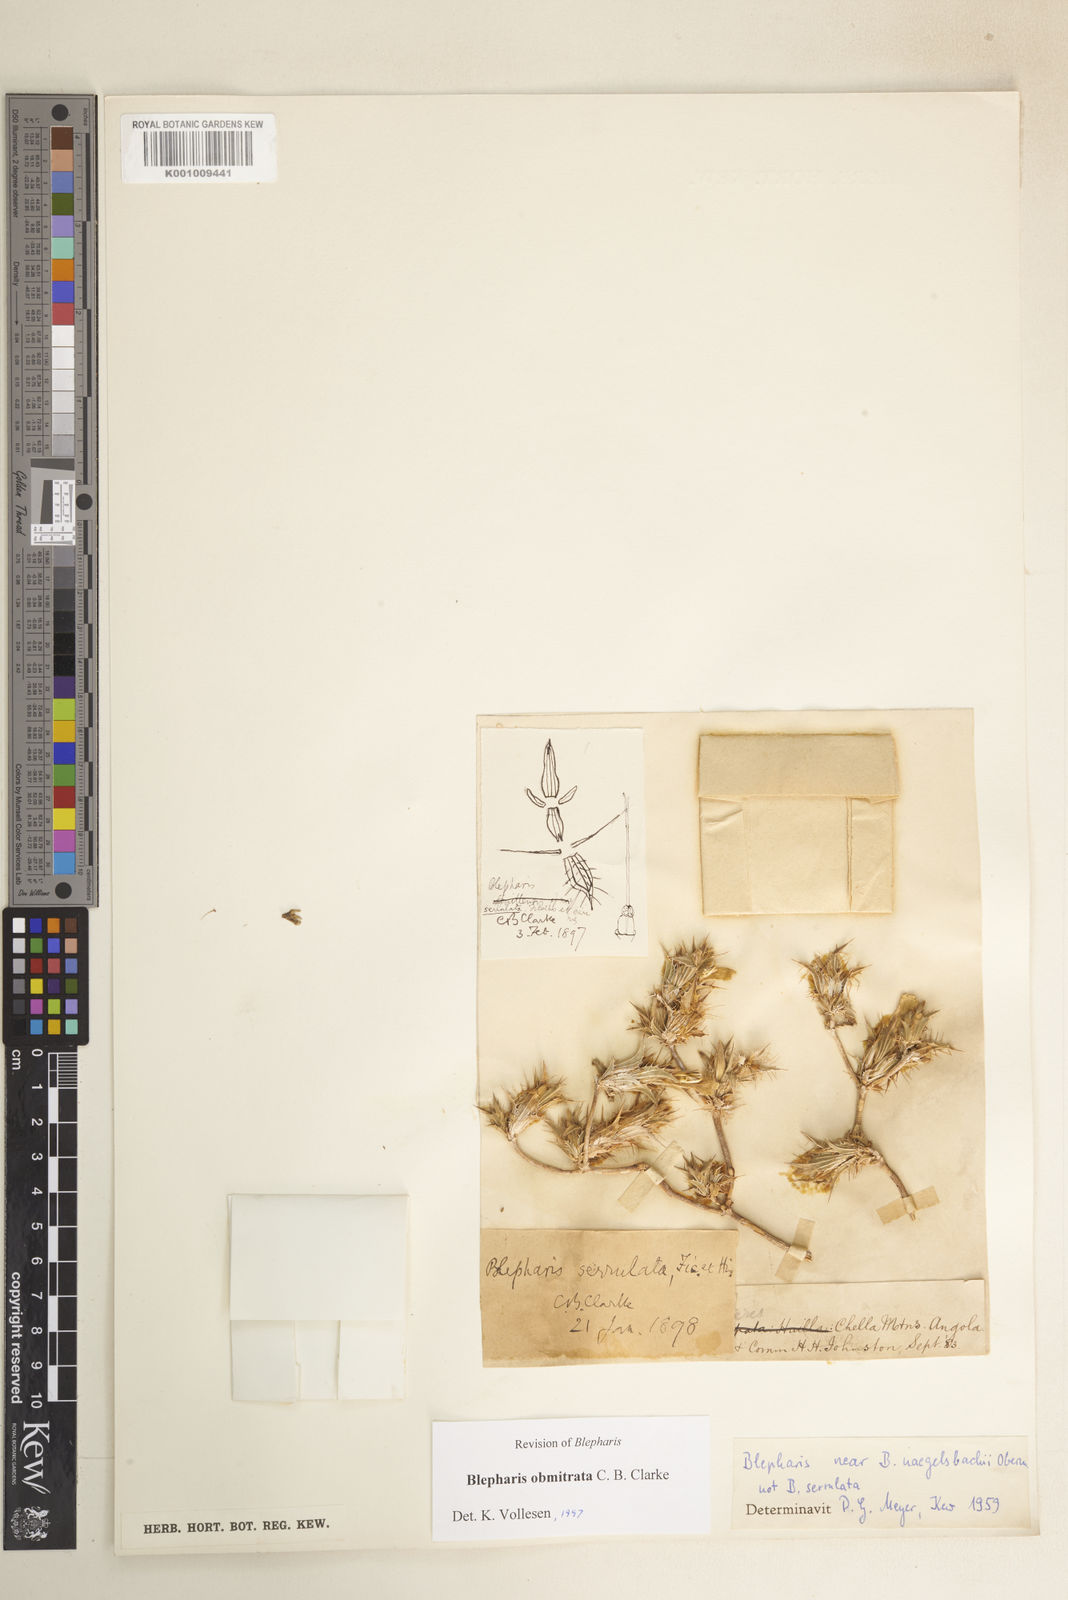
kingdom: Plantae
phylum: Tracheophyta
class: Magnoliopsida
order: Lamiales
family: Acanthaceae
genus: Blepharis
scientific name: Blepharis obmitrata
